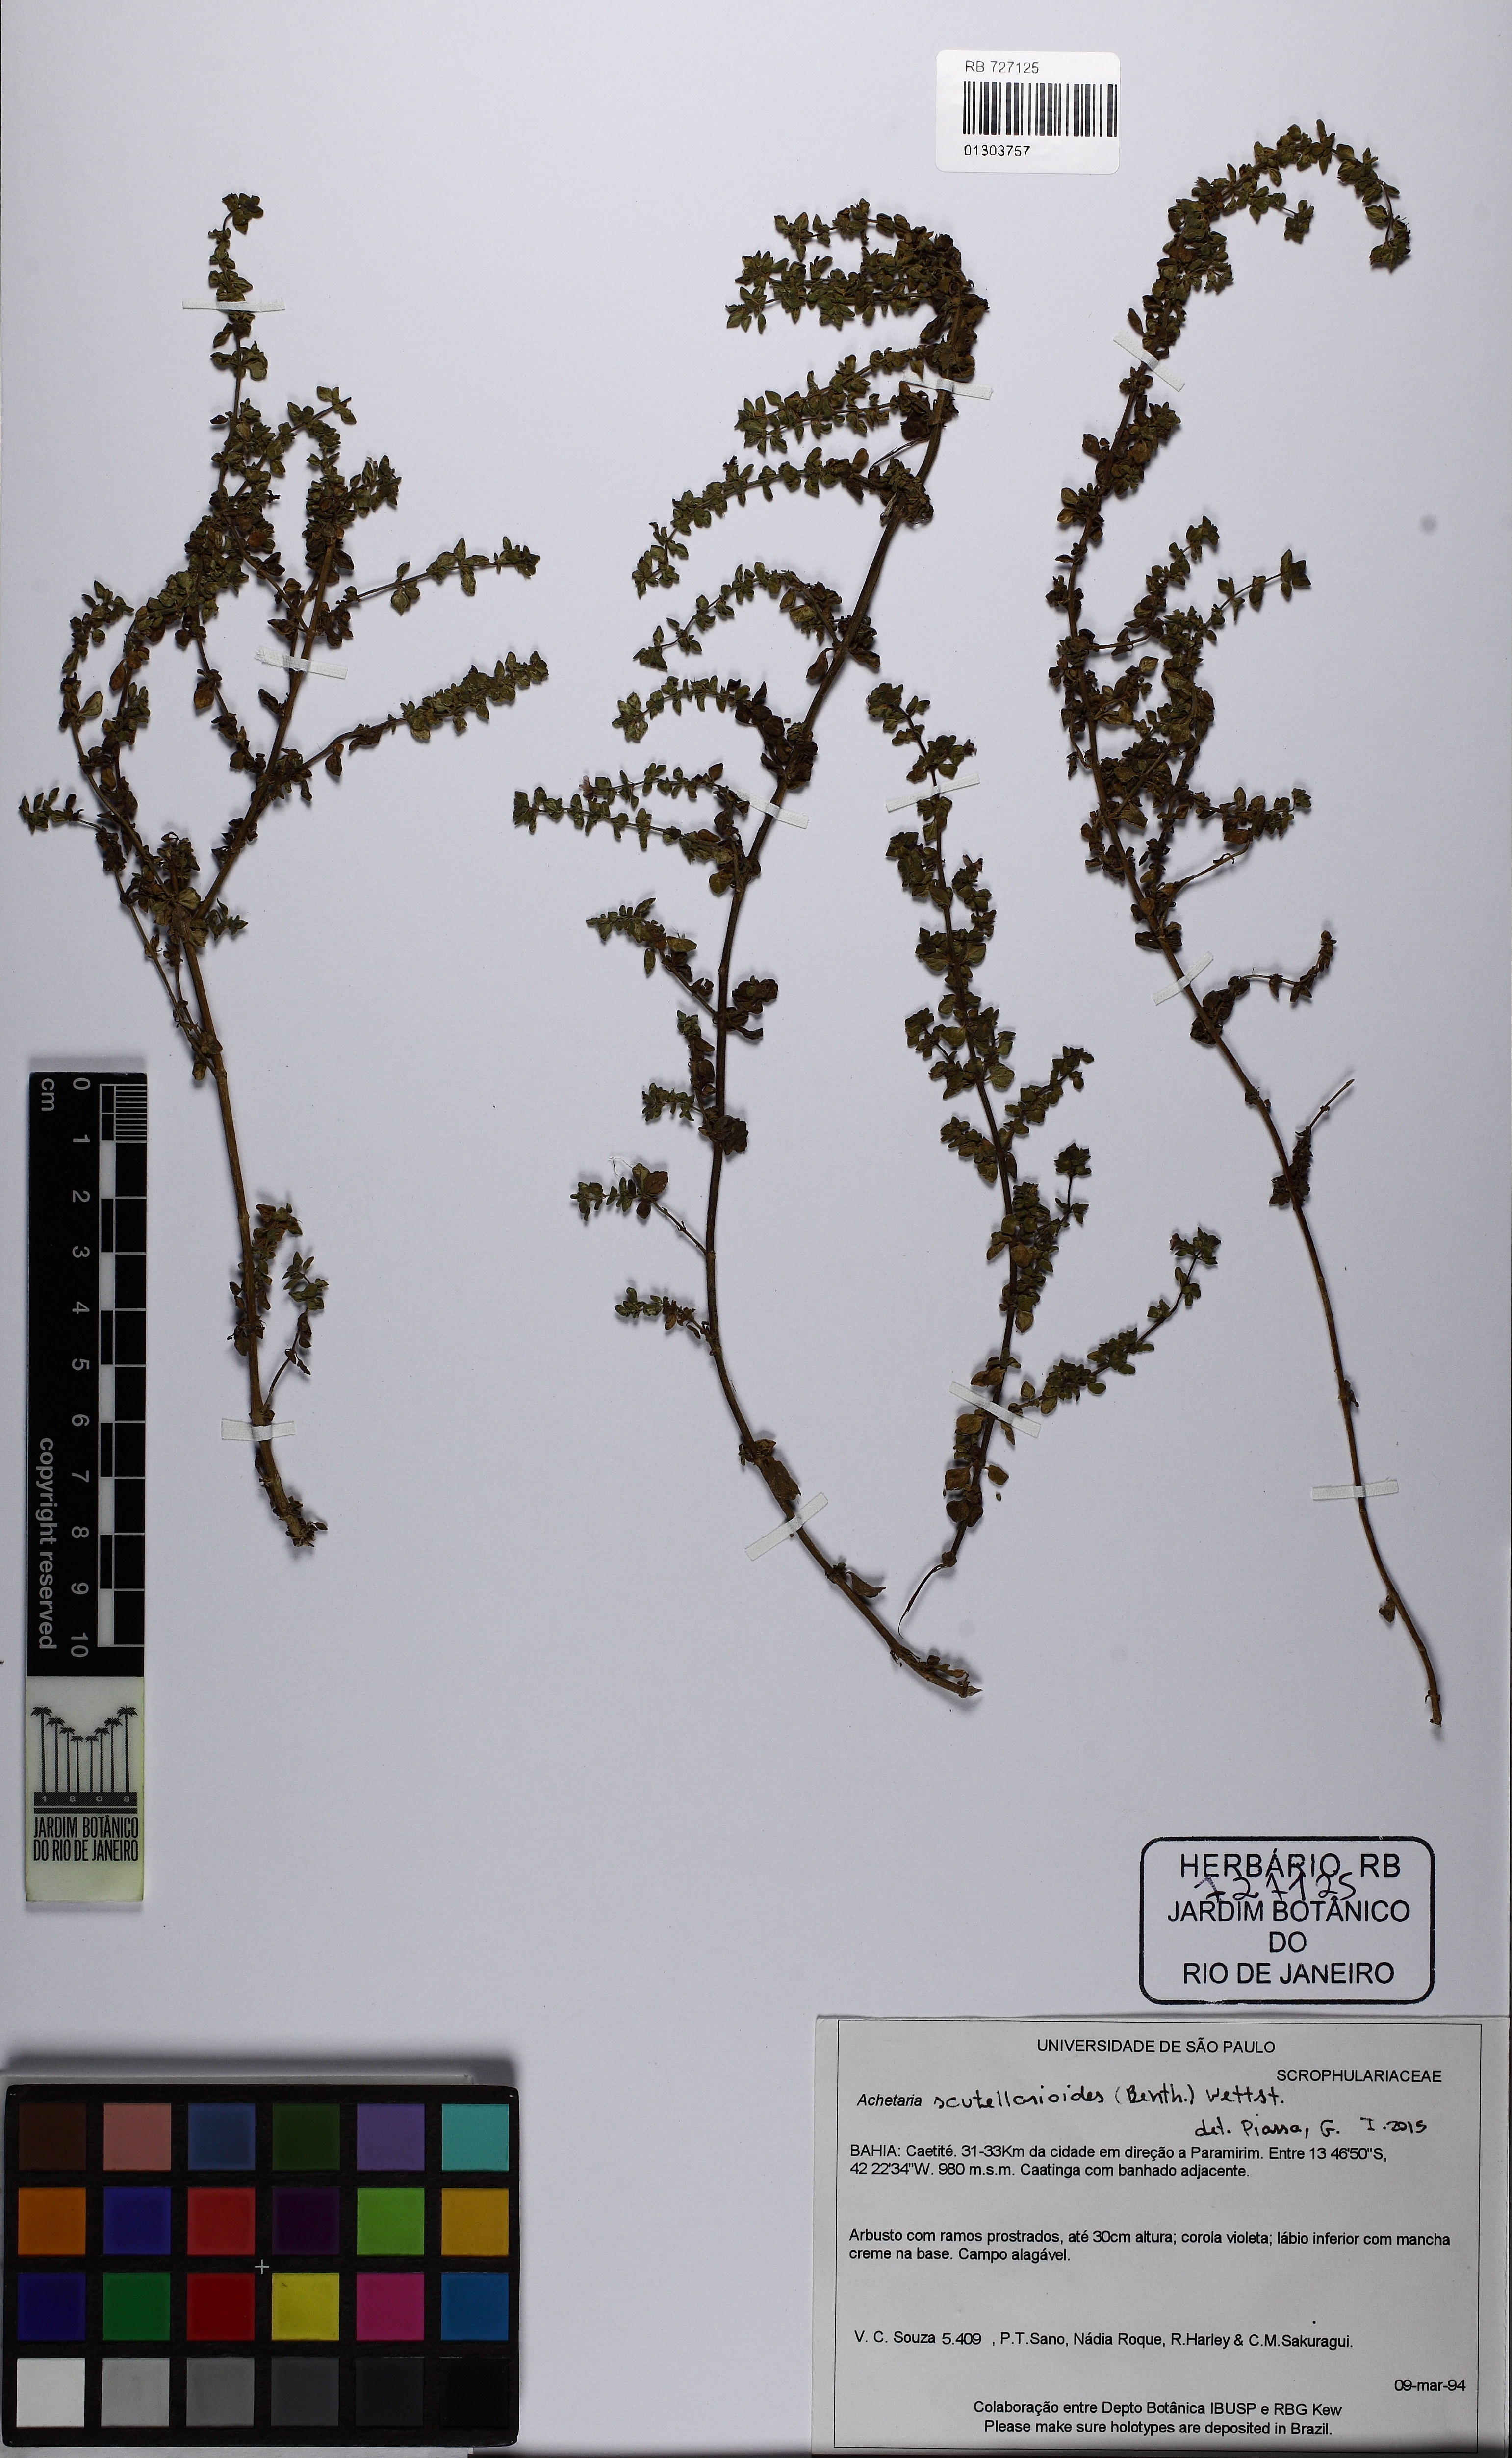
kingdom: Plantae
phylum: Tracheophyta
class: Magnoliopsida
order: Lamiales
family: Plantaginaceae
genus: Matourea
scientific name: Matourea pratensis
